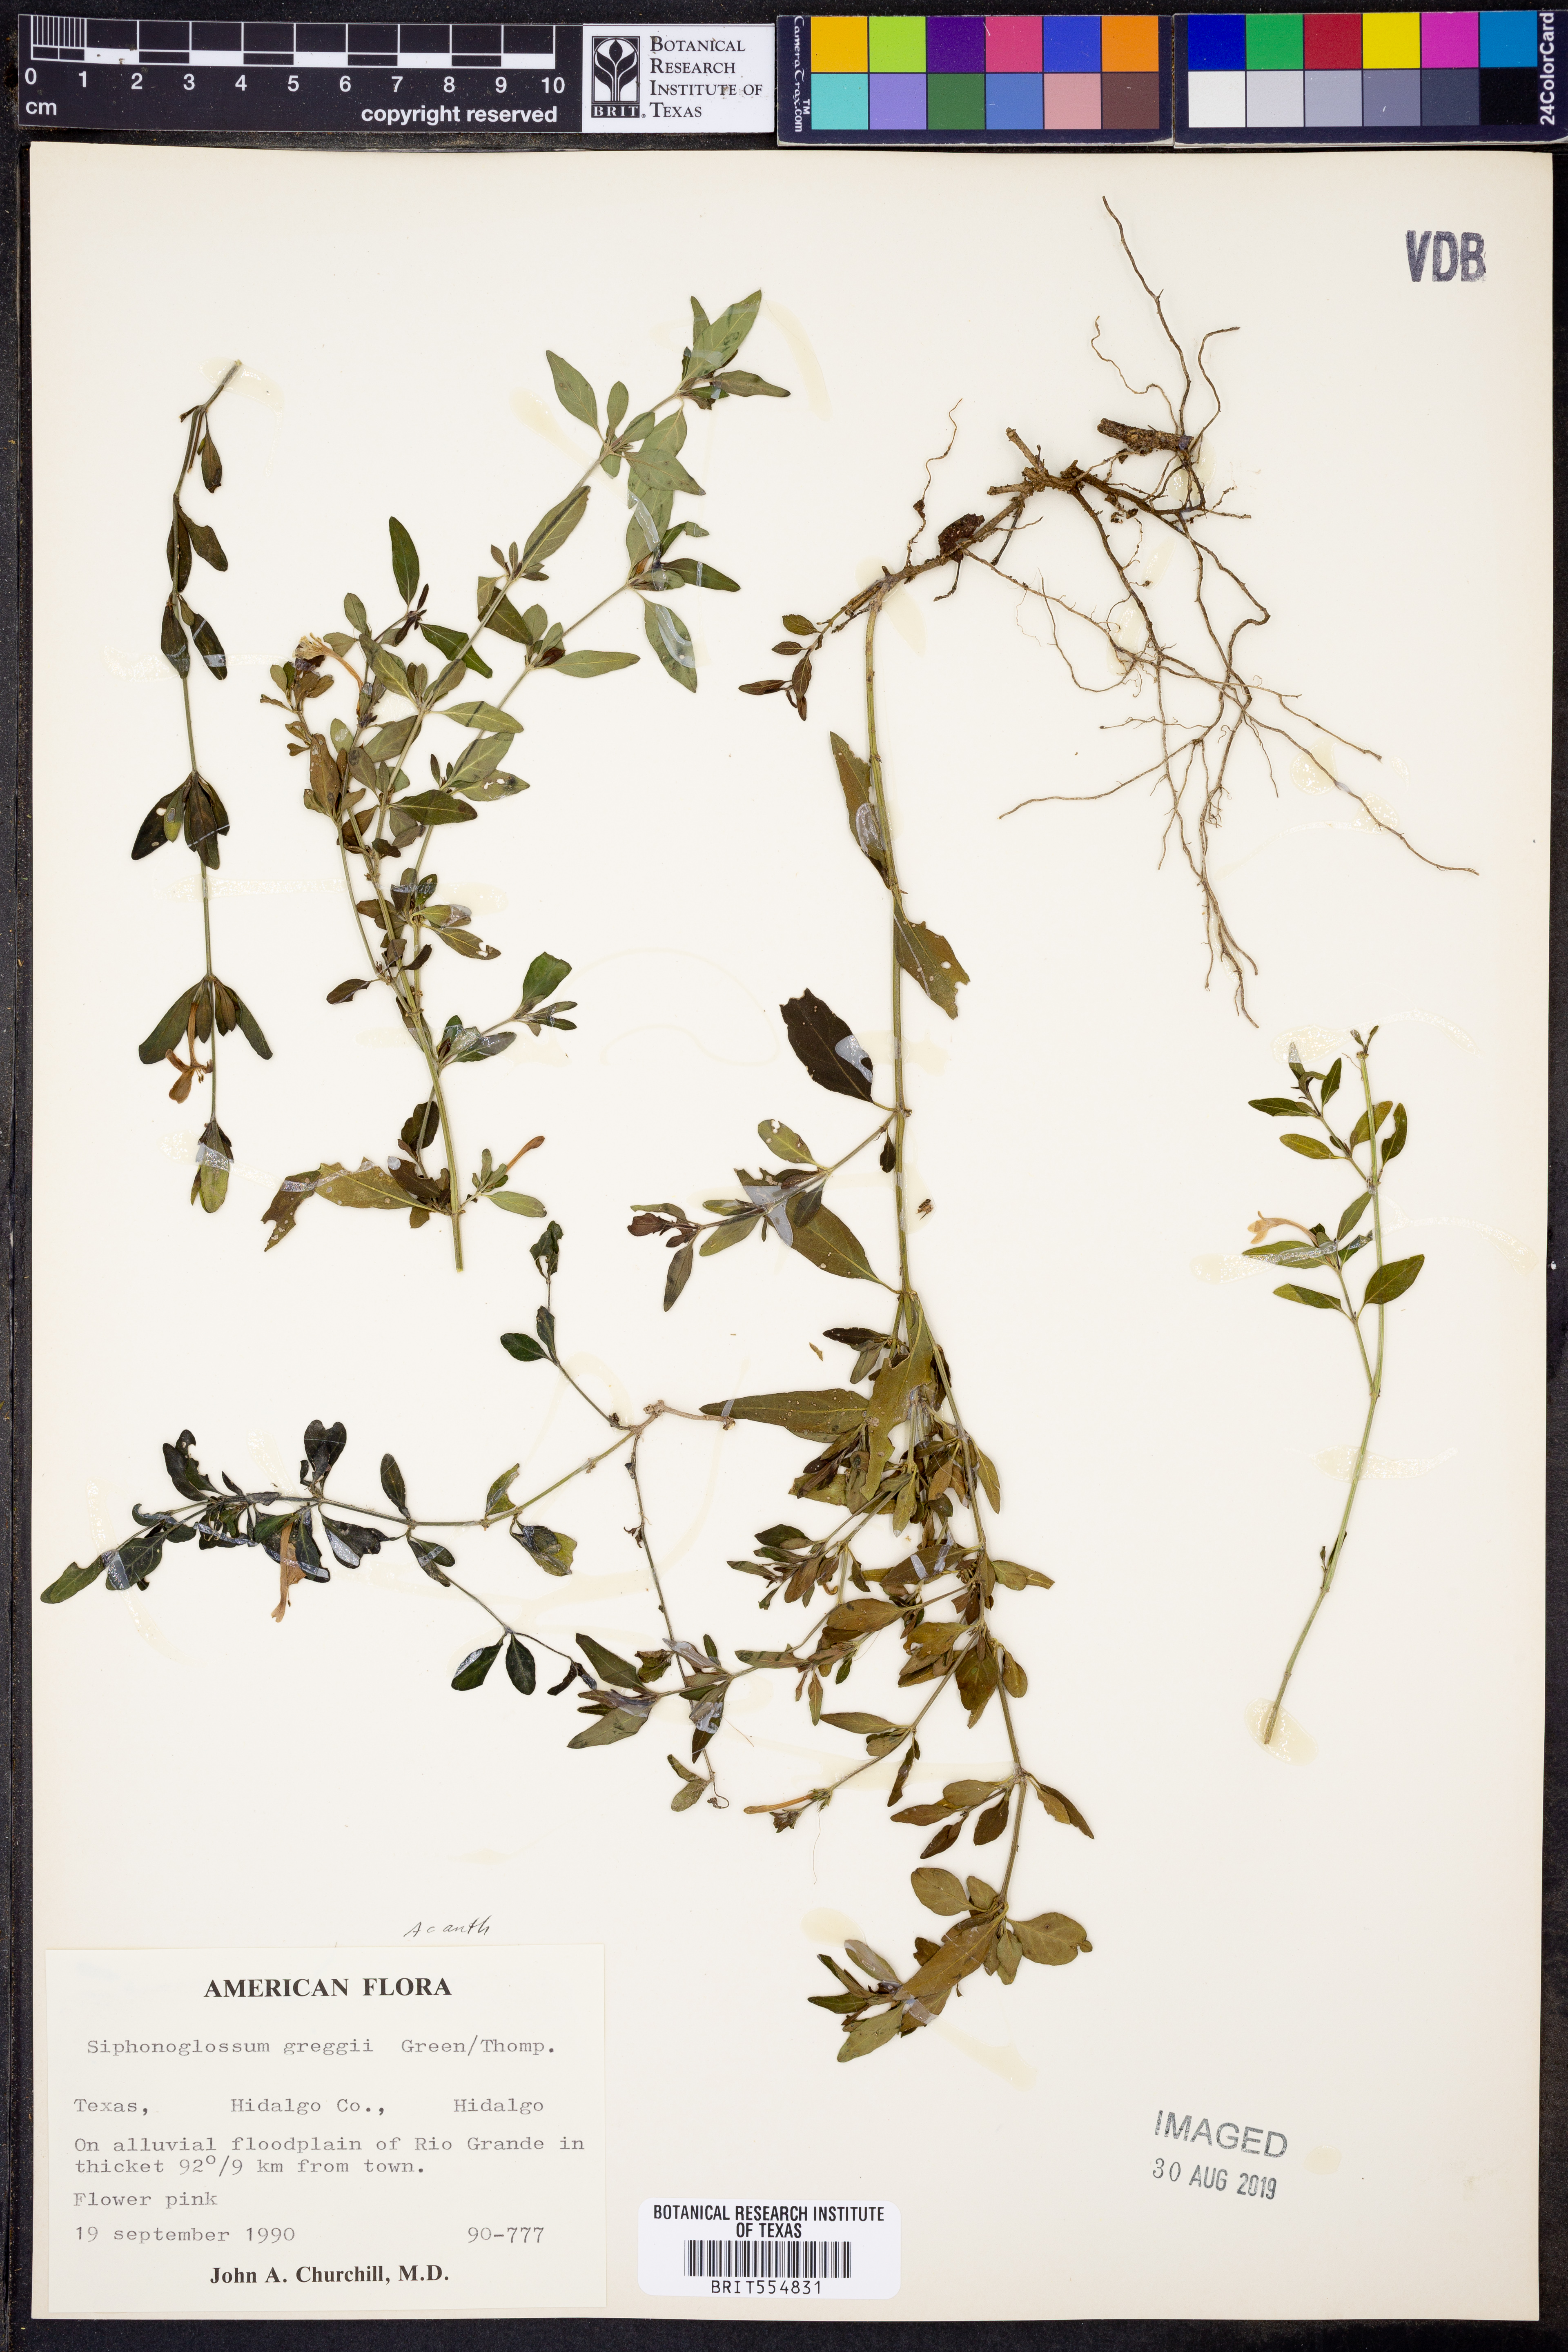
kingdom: Plantae
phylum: Tracheophyta
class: Magnoliopsida
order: Lamiales
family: Acanthaceae
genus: Justicia
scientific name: Justicia pilosella
